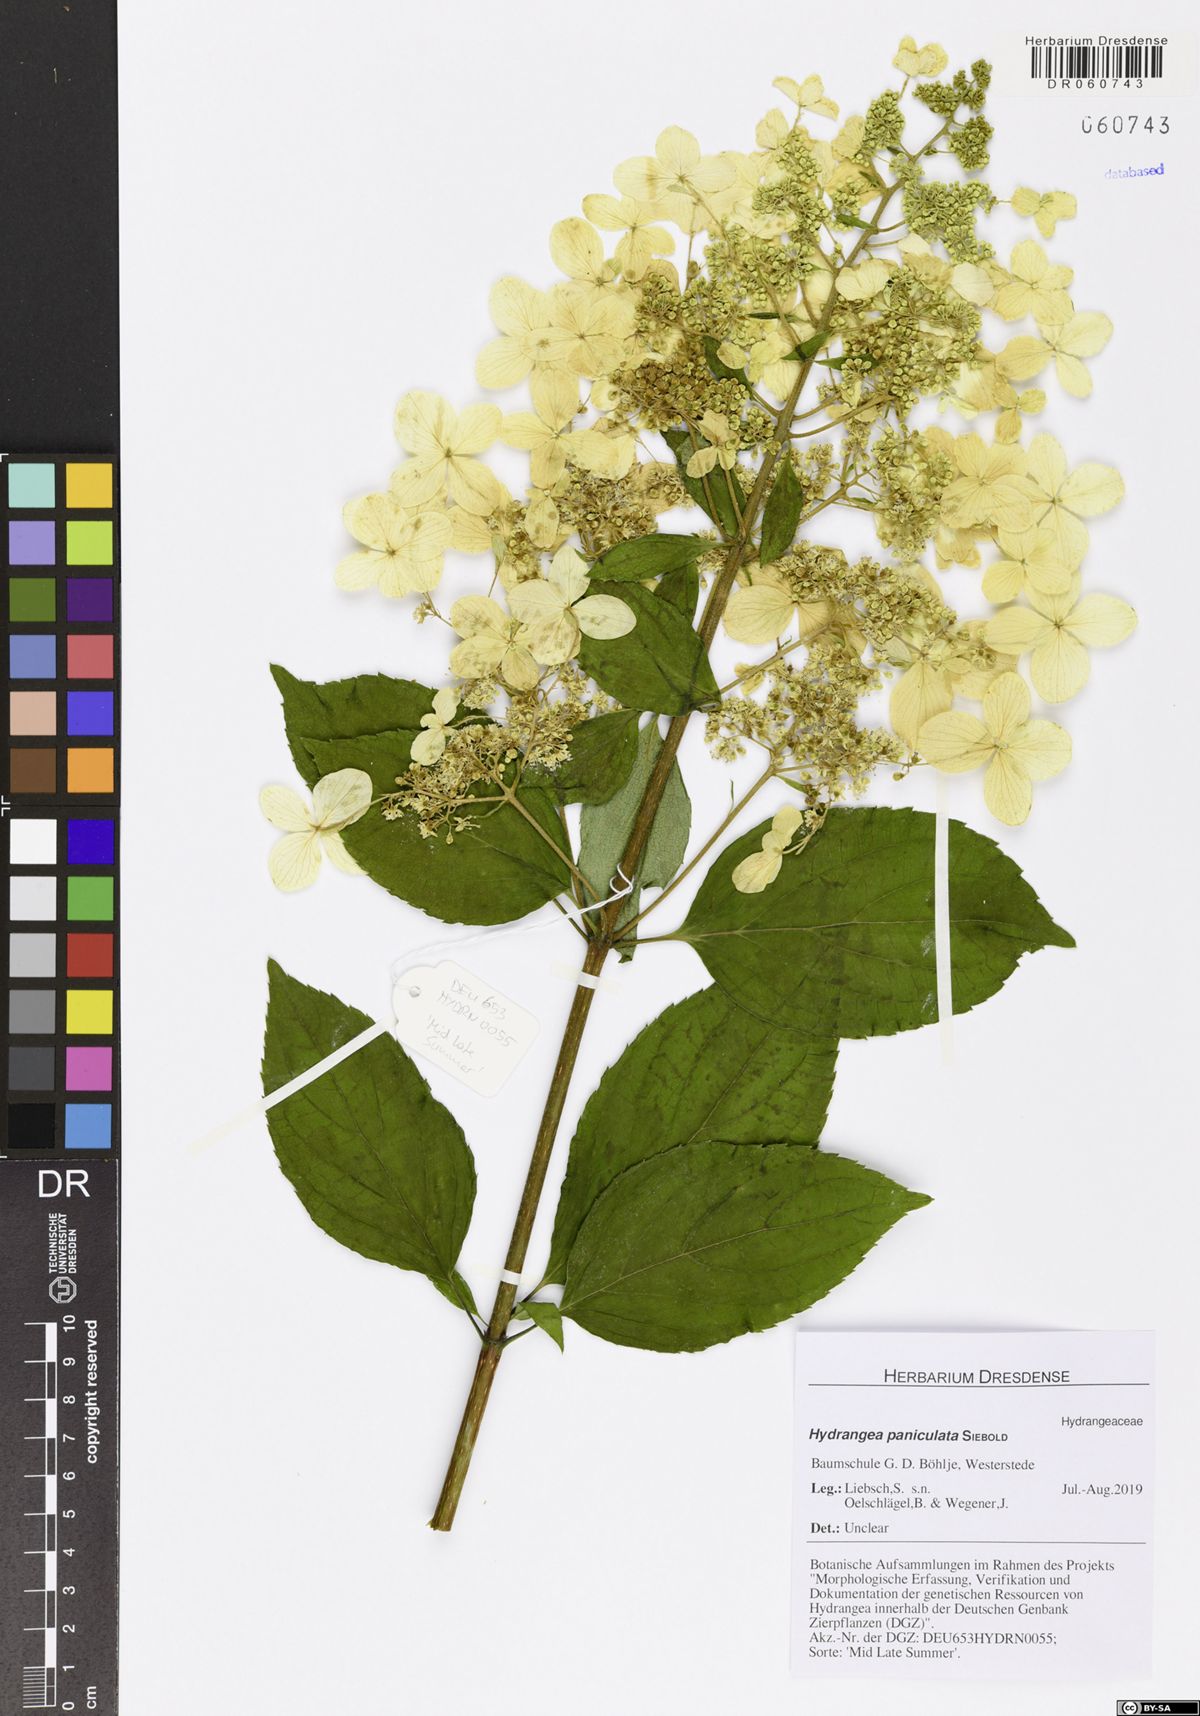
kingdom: Plantae
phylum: Tracheophyta
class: Magnoliopsida
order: Cornales
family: Hydrangeaceae
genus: Hydrangea
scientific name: Hydrangea paniculata
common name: Panicled hydrangea
